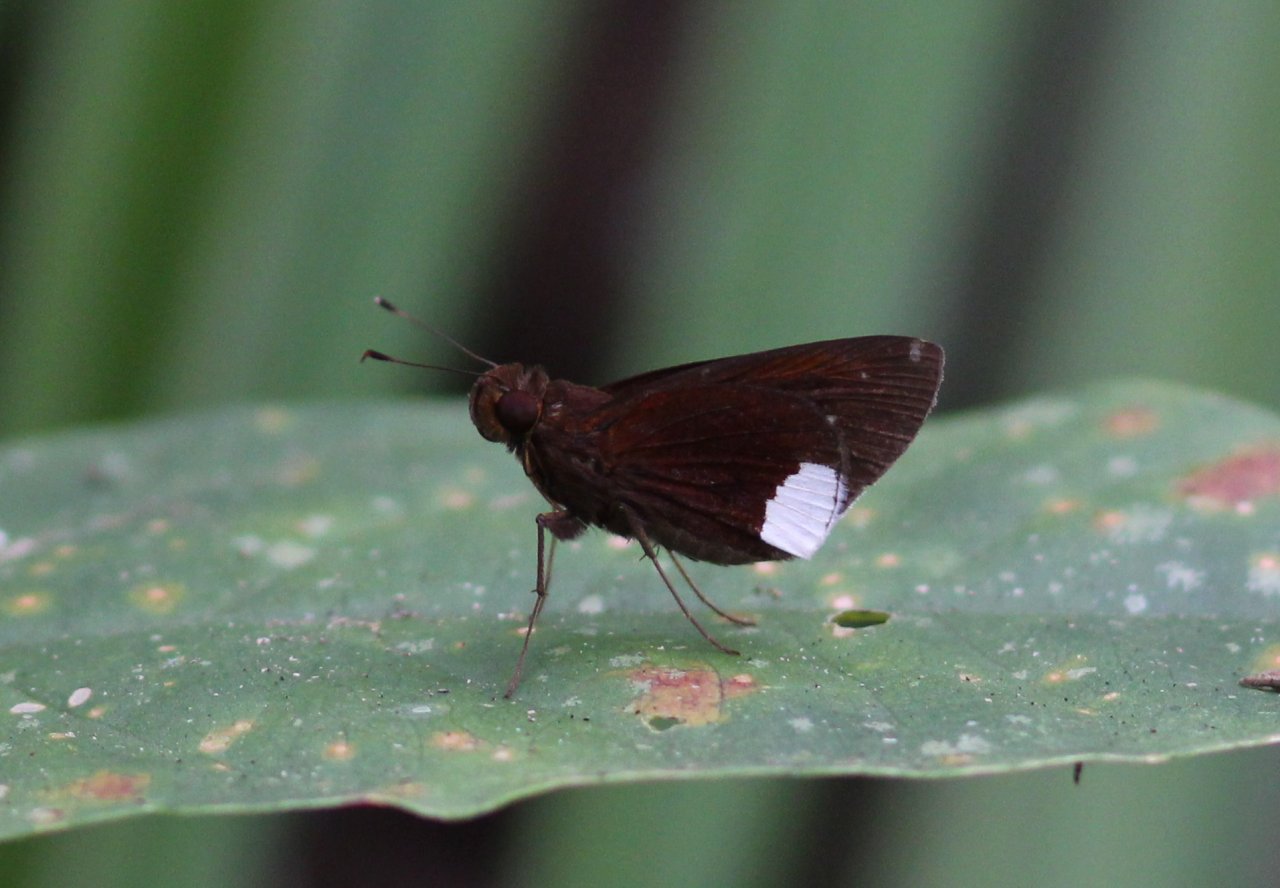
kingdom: Animalia
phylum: Arthropoda
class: Insecta
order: Lepidoptera
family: Hesperiidae
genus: Cobalus
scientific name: Cobalus virbius
